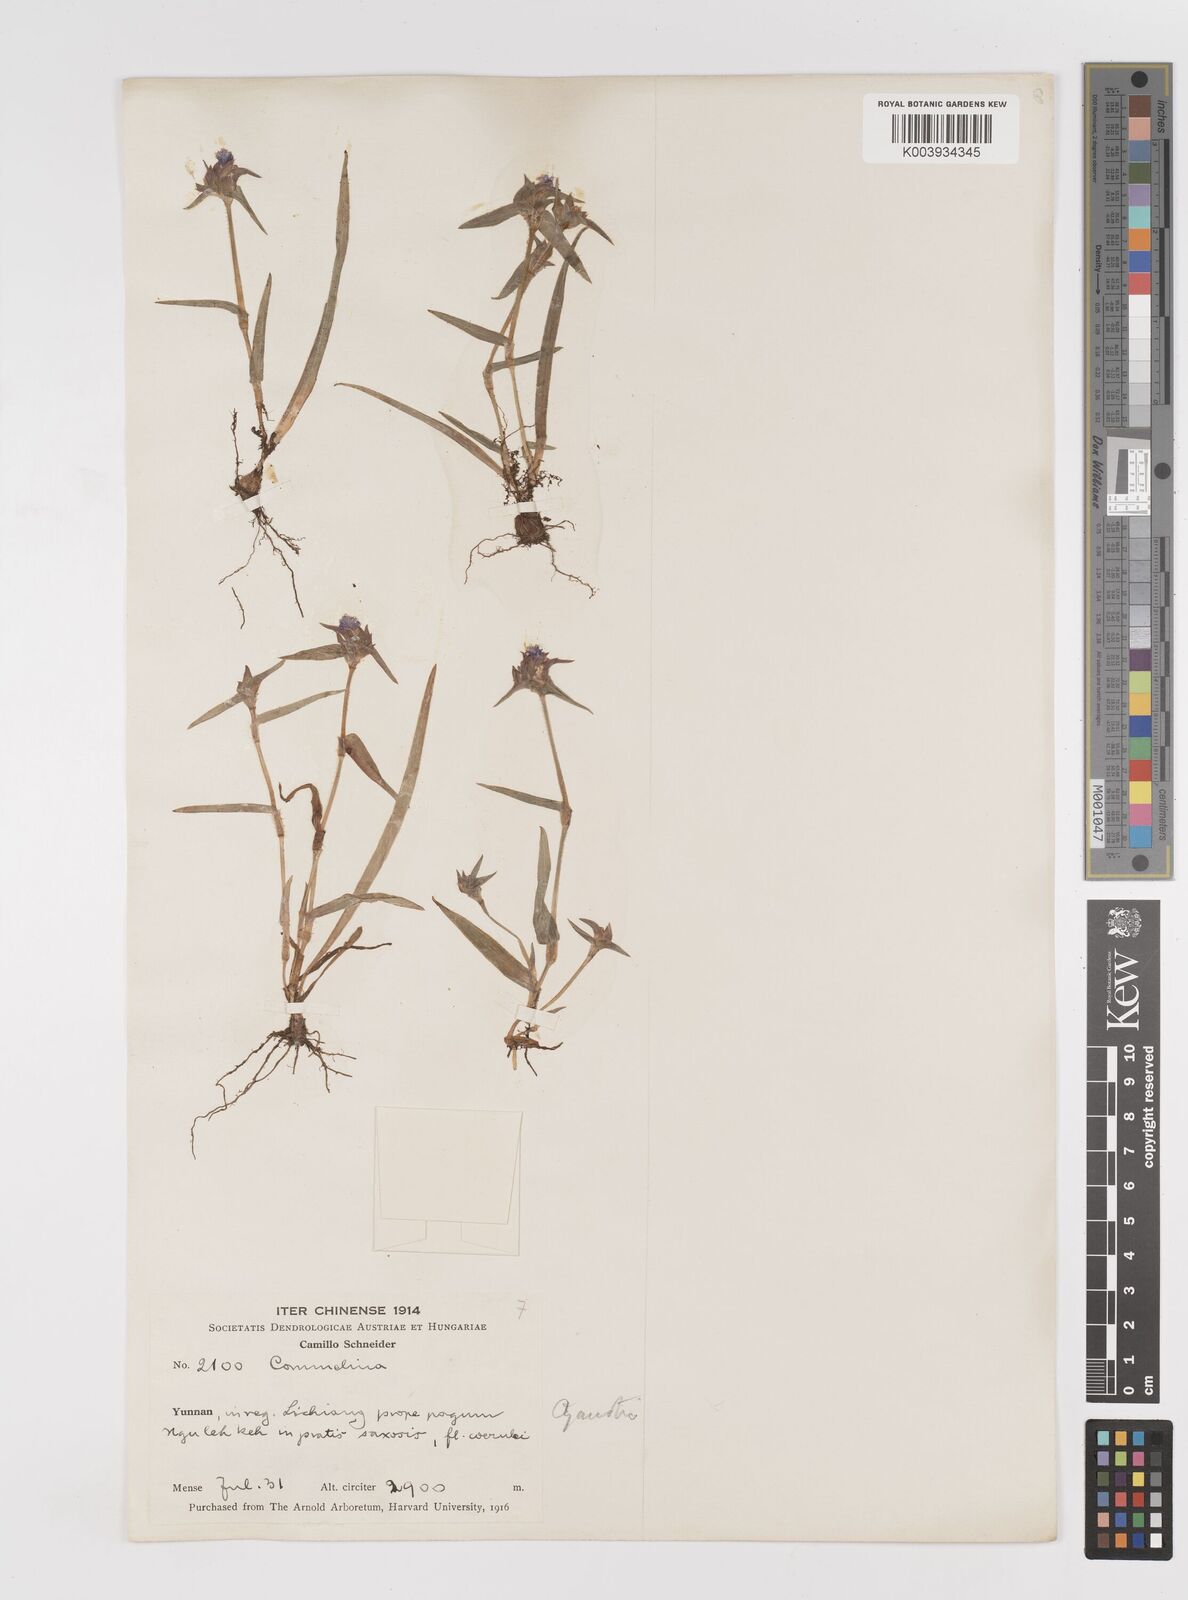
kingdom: Plantae
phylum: Tracheophyta
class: Liliopsida
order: Commelinales
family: Commelinaceae
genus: Cyanotis
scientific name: Cyanotis vaga
